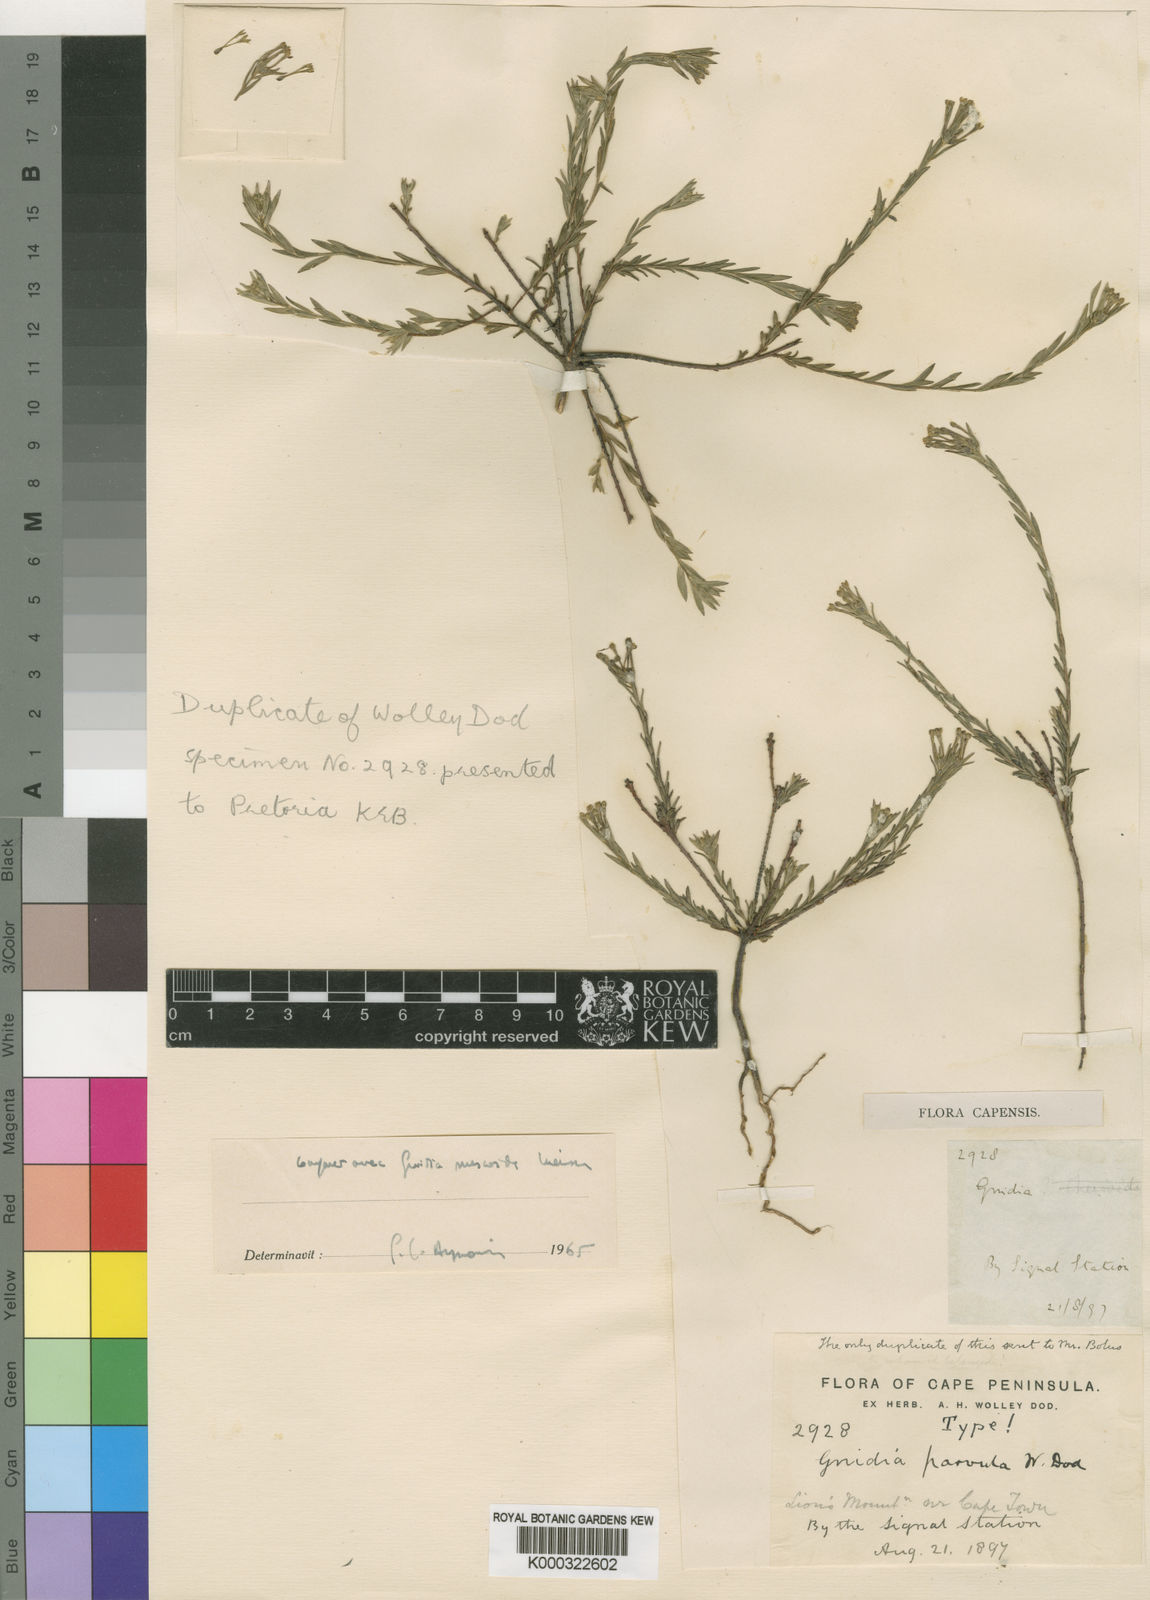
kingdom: Plantae
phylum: Tracheophyta
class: Magnoliopsida
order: Malvales
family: Thymelaeaceae
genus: Gnidia
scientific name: Gnidia parvula
